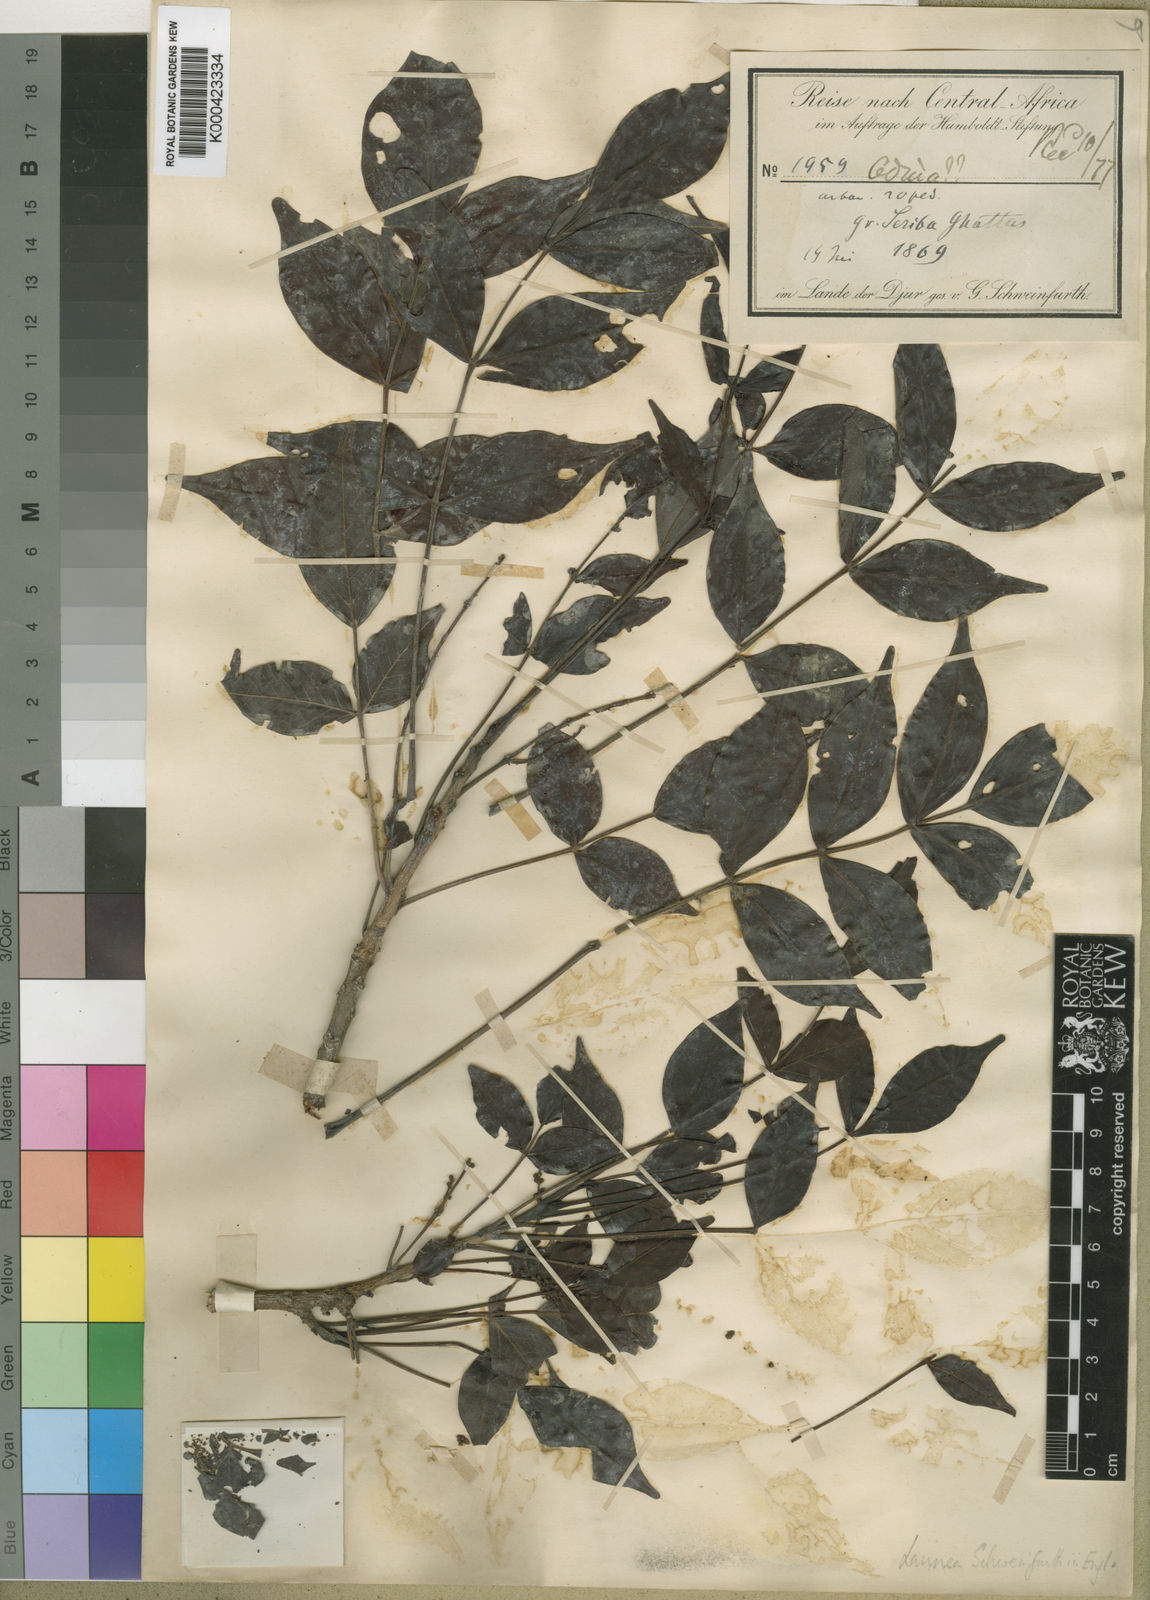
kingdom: Plantae
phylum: Tracheophyta
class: Magnoliopsida
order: Sapindales
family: Anacardiaceae
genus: Lannea
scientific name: Lannea schweinfurthii
